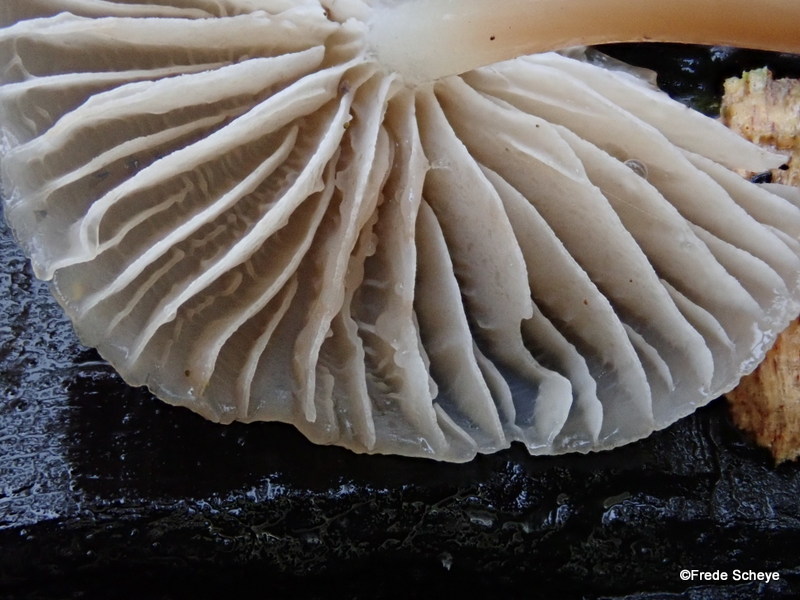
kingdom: Fungi
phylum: Basidiomycota
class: Agaricomycetes
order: Agaricales
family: Mycenaceae
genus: Mycena
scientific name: Mycena galericulata
